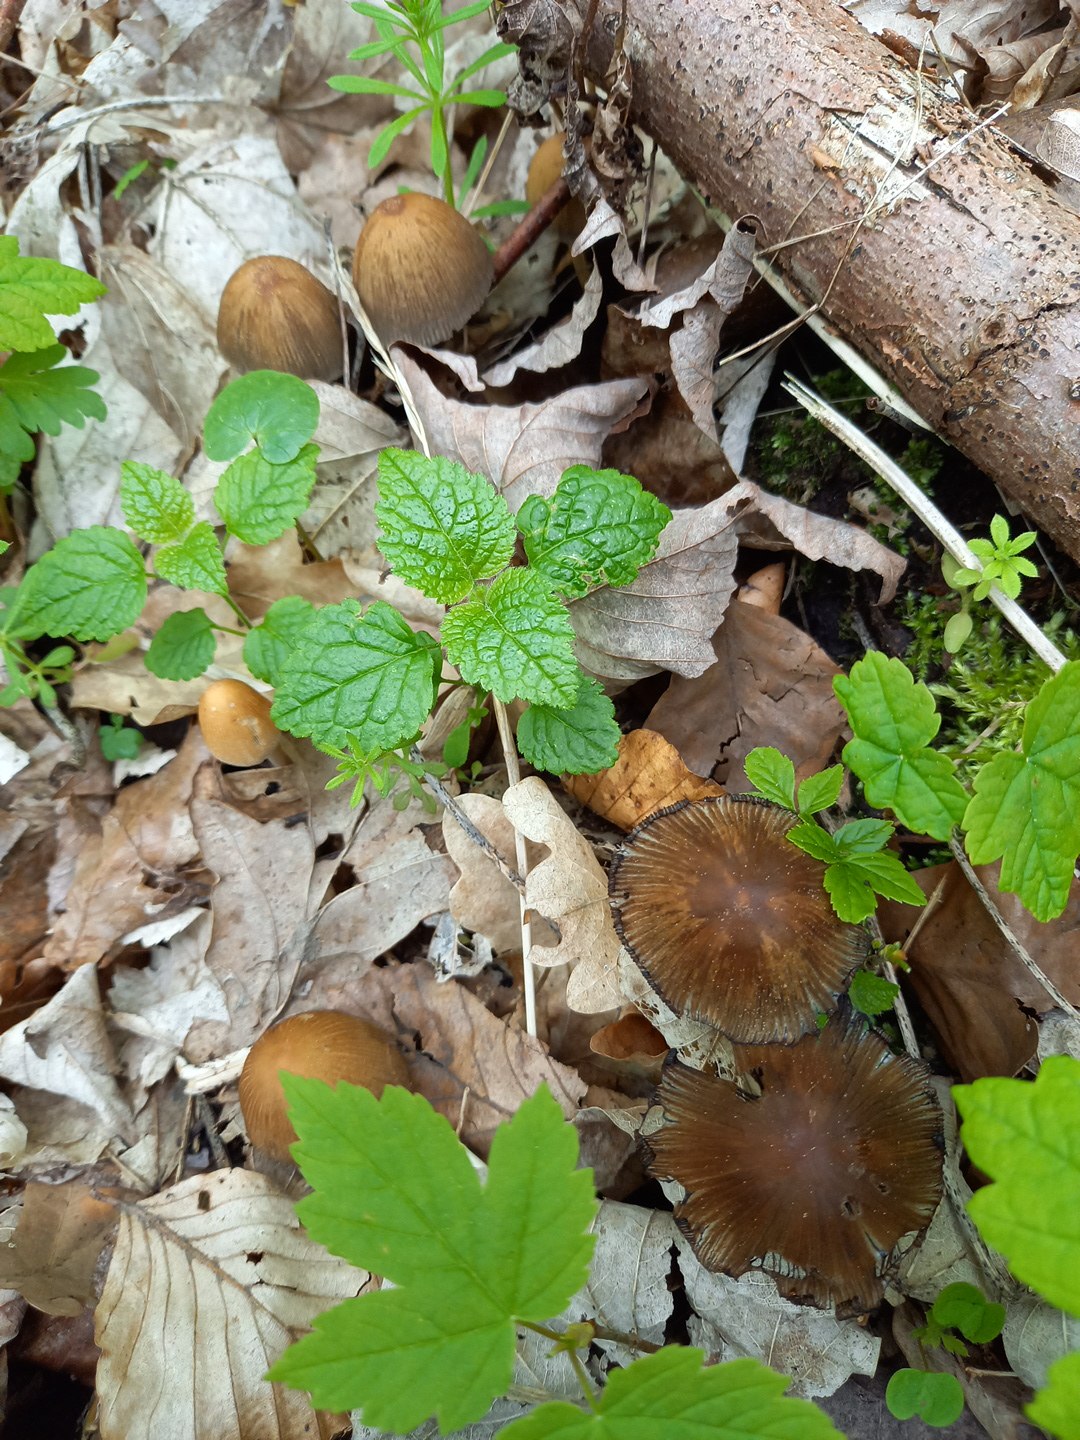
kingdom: Fungi
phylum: Basidiomycota
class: Agaricomycetes
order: Agaricales
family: Psathyrellaceae
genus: Coprinellus
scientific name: Coprinellus micaceus
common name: glimmer-blækhat
